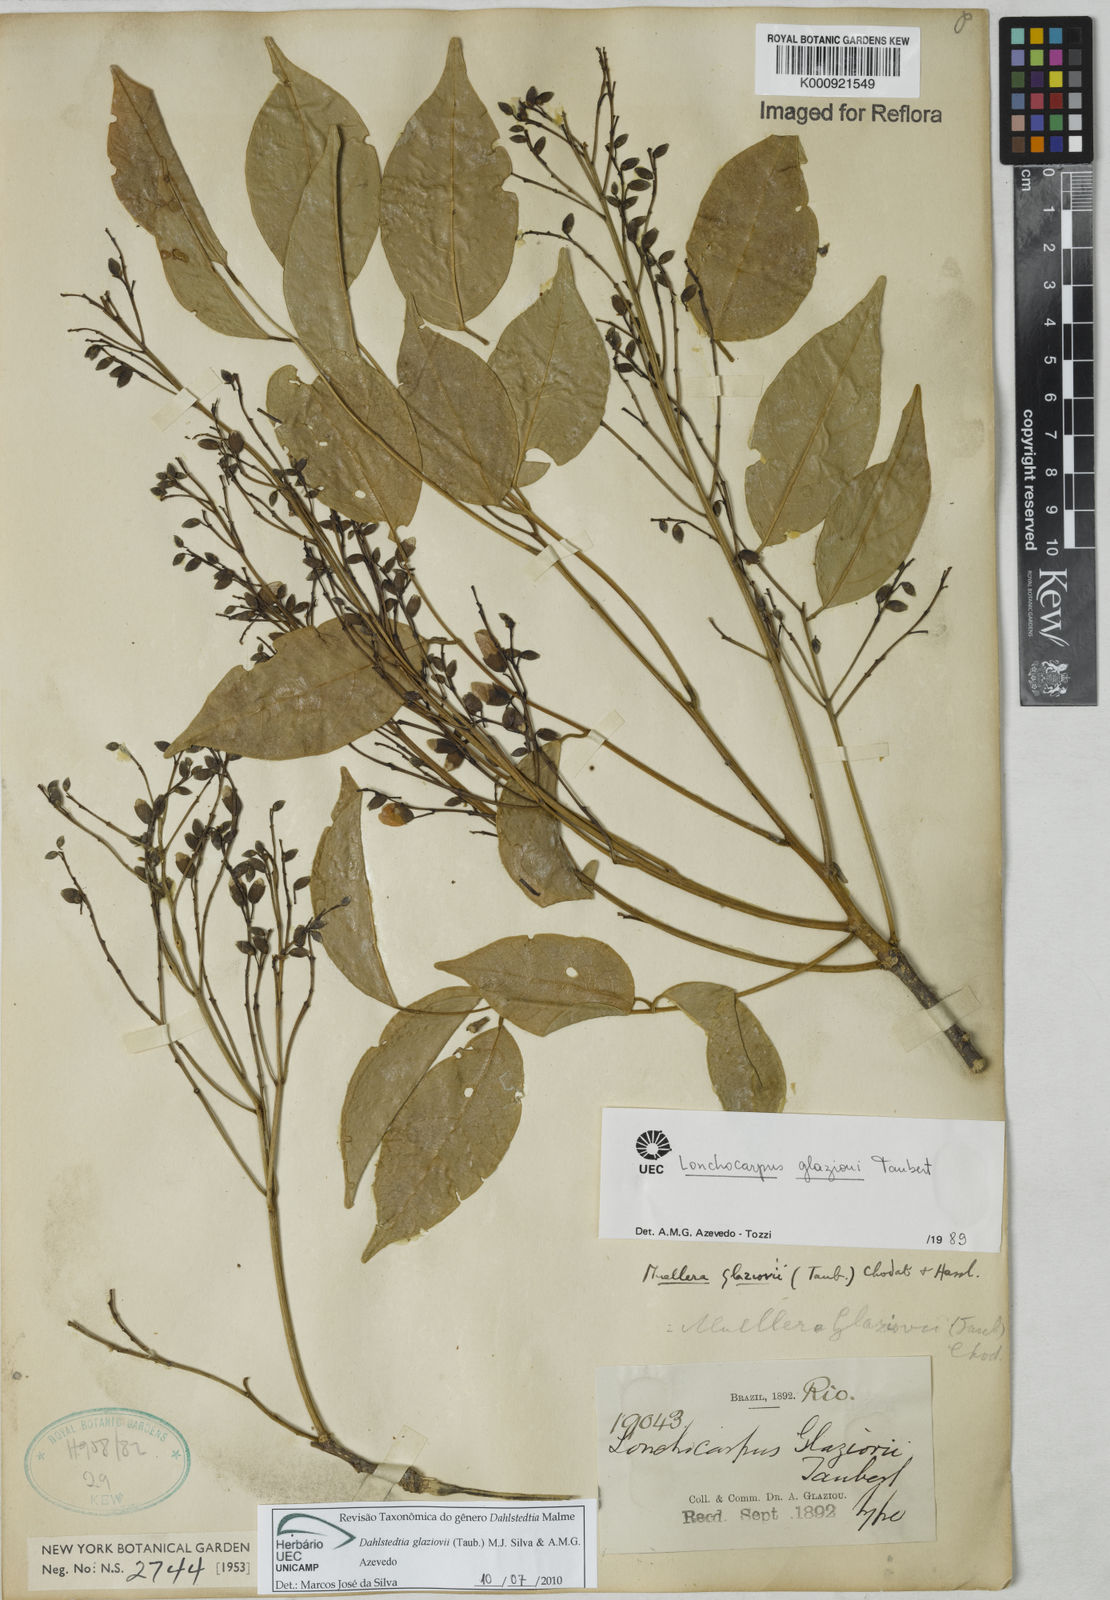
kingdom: Plantae
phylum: Tracheophyta
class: Magnoliopsida
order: Fabales
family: Fabaceae
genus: Dahlstedtia
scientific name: Dahlstedtia
